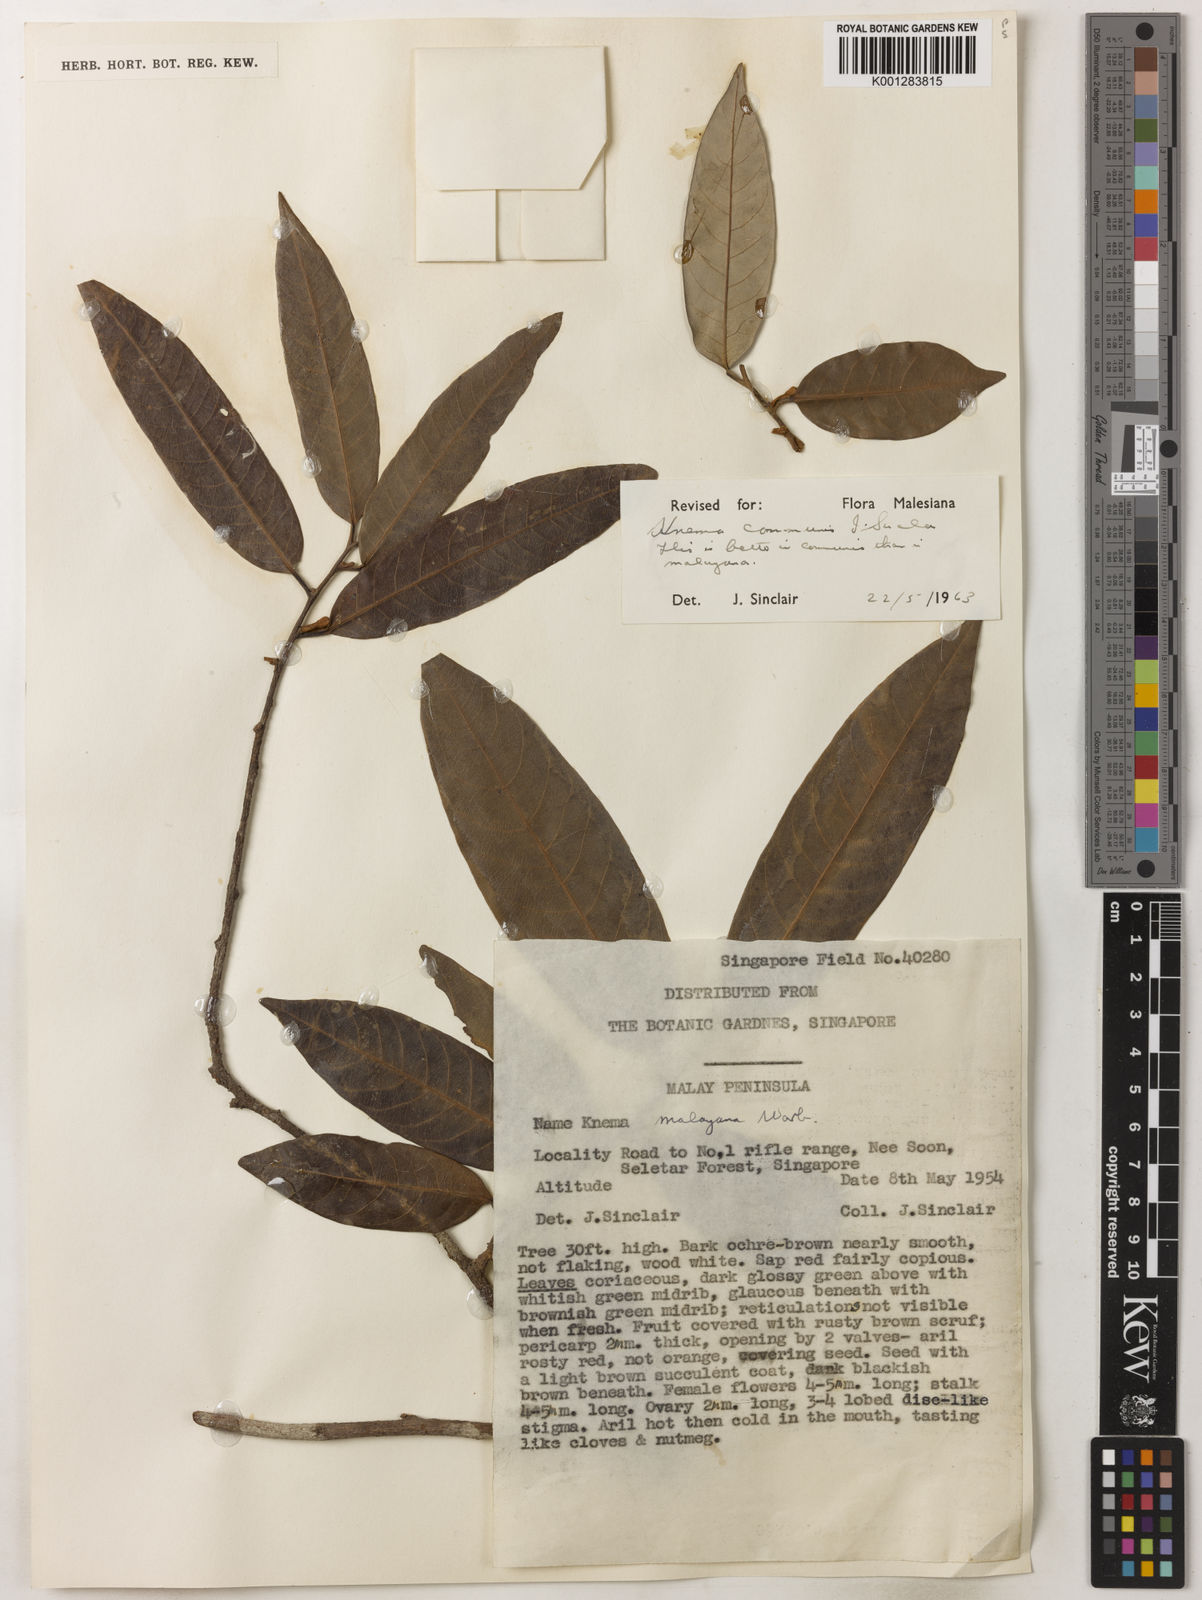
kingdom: Plantae
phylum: Tracheophyta
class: Magnoliopsida
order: Magnoliales
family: Myristicaceae
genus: Knema
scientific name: Knema communis
